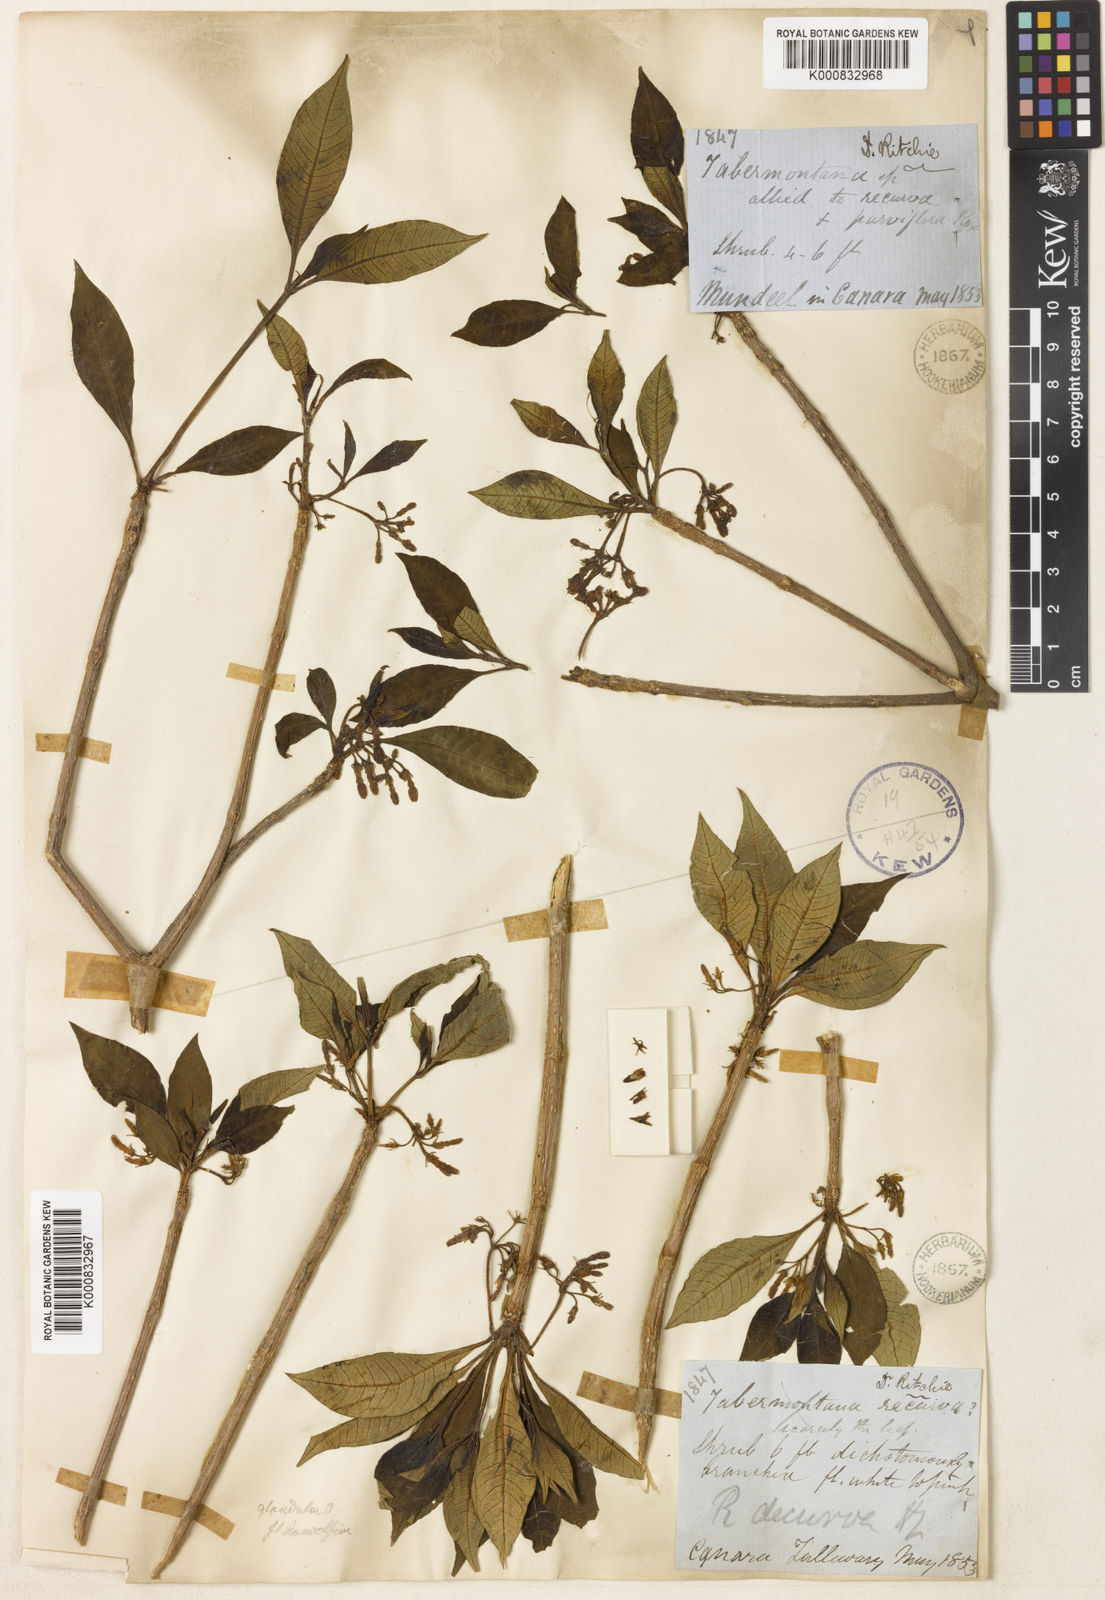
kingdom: Plantae
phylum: Tracheophyta
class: Magnoliopsida
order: Gentianales
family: Apocynaceae
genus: Rauvolfia
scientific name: Rauvolfia verticillata
